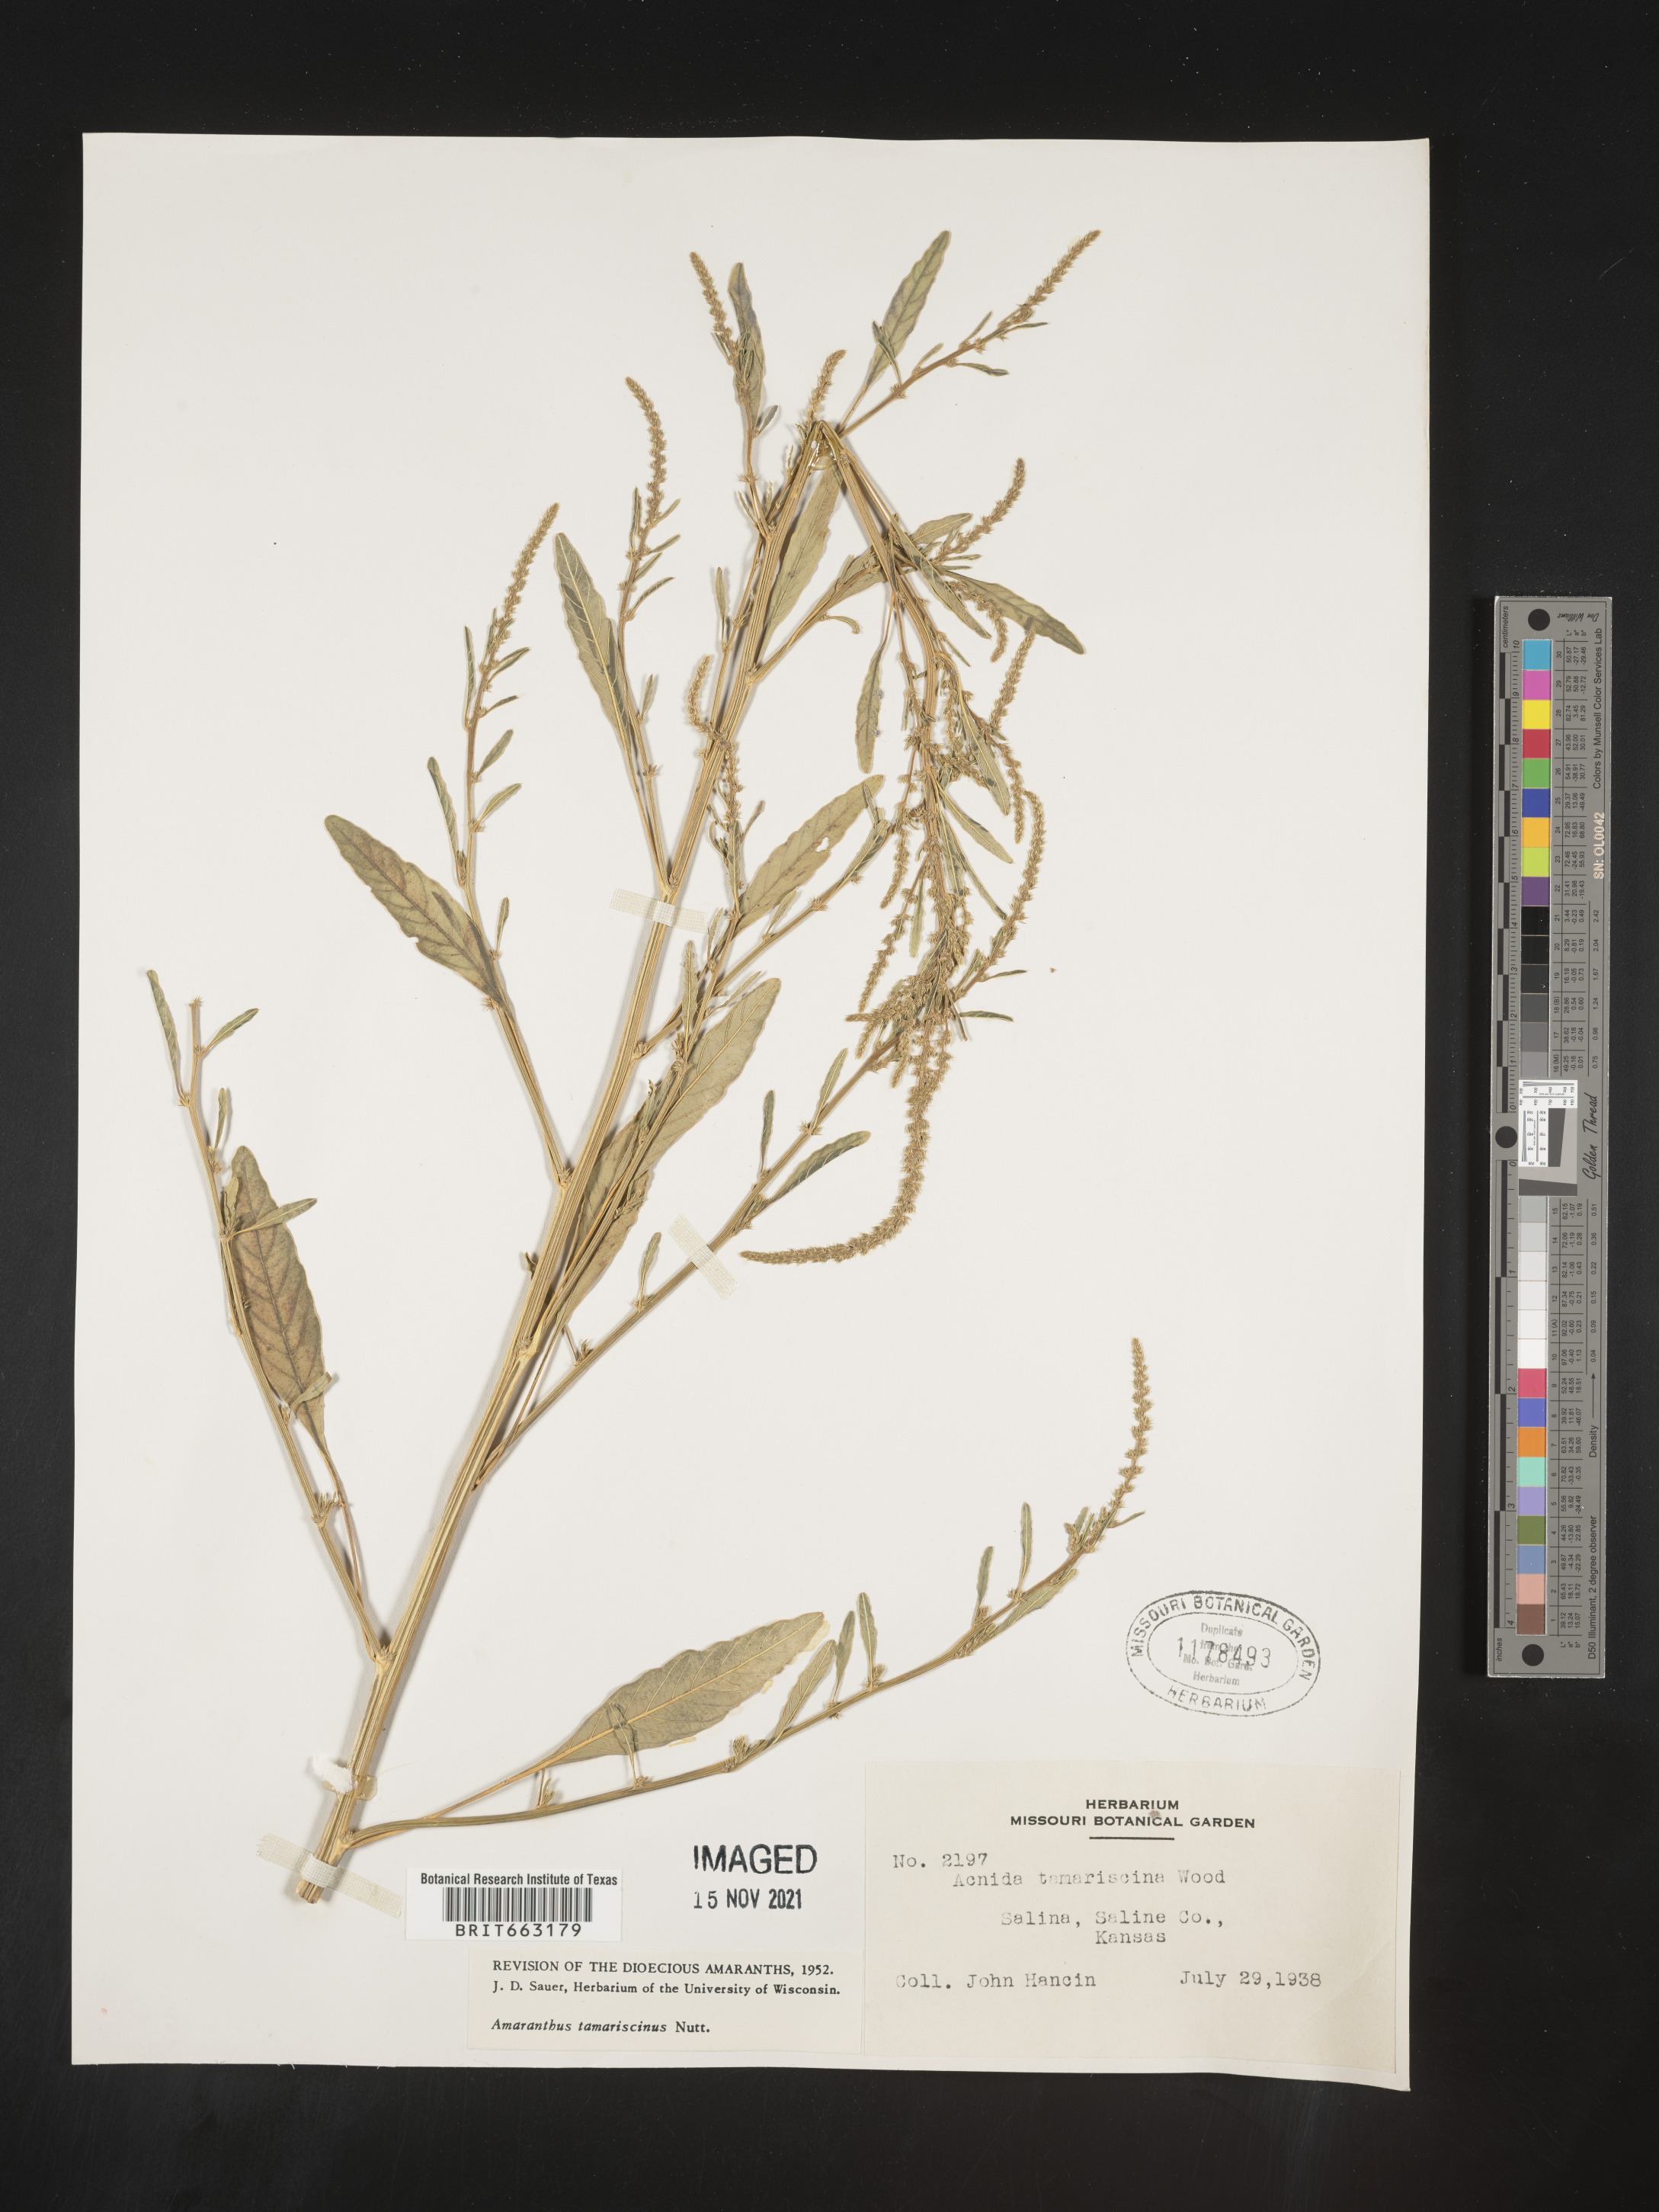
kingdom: Plantae
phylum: Tracheophyta
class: Magnoliopsida
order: Caryophyllales
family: Amaranthaceae
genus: Amaranthus
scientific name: Amaranthus tamariscinus
